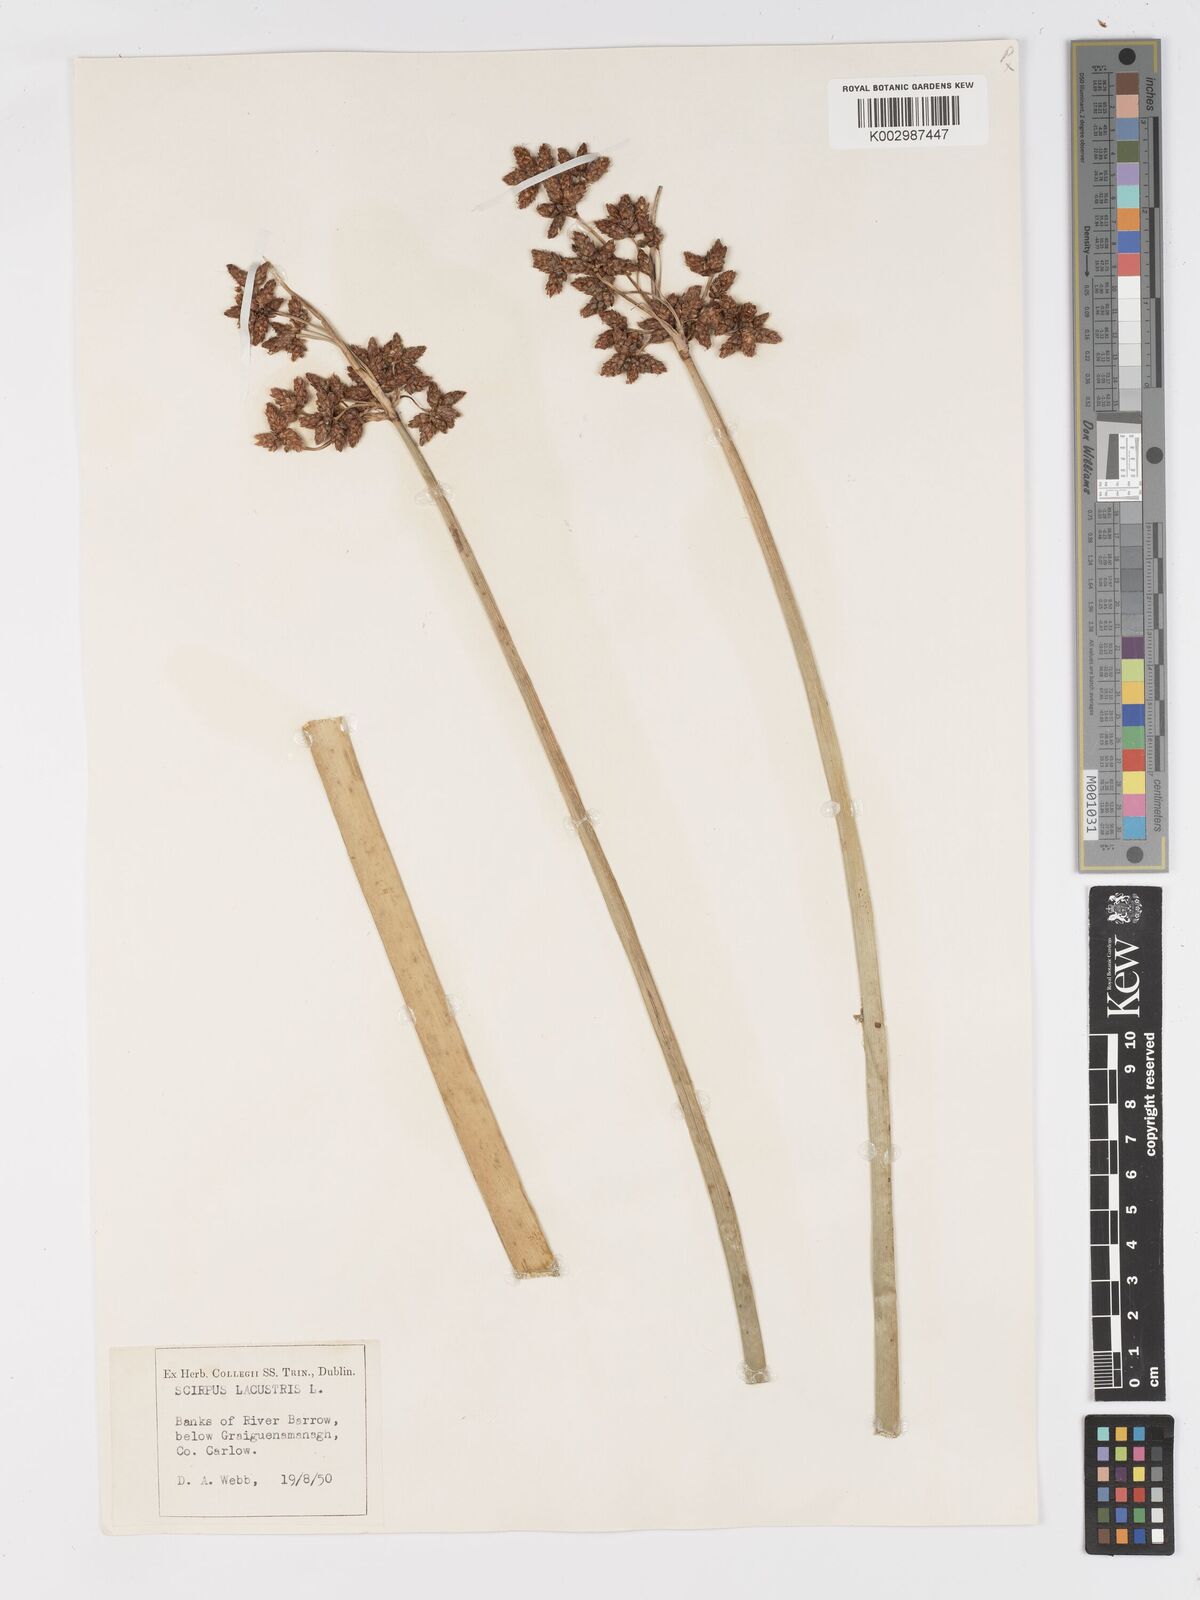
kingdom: Plantae
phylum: Tracheophyta
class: Liliopsida
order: Poales
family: Cyperaceae
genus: Schoenoplectus
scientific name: Schoenoplectus lacustris
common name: Common club-rush
